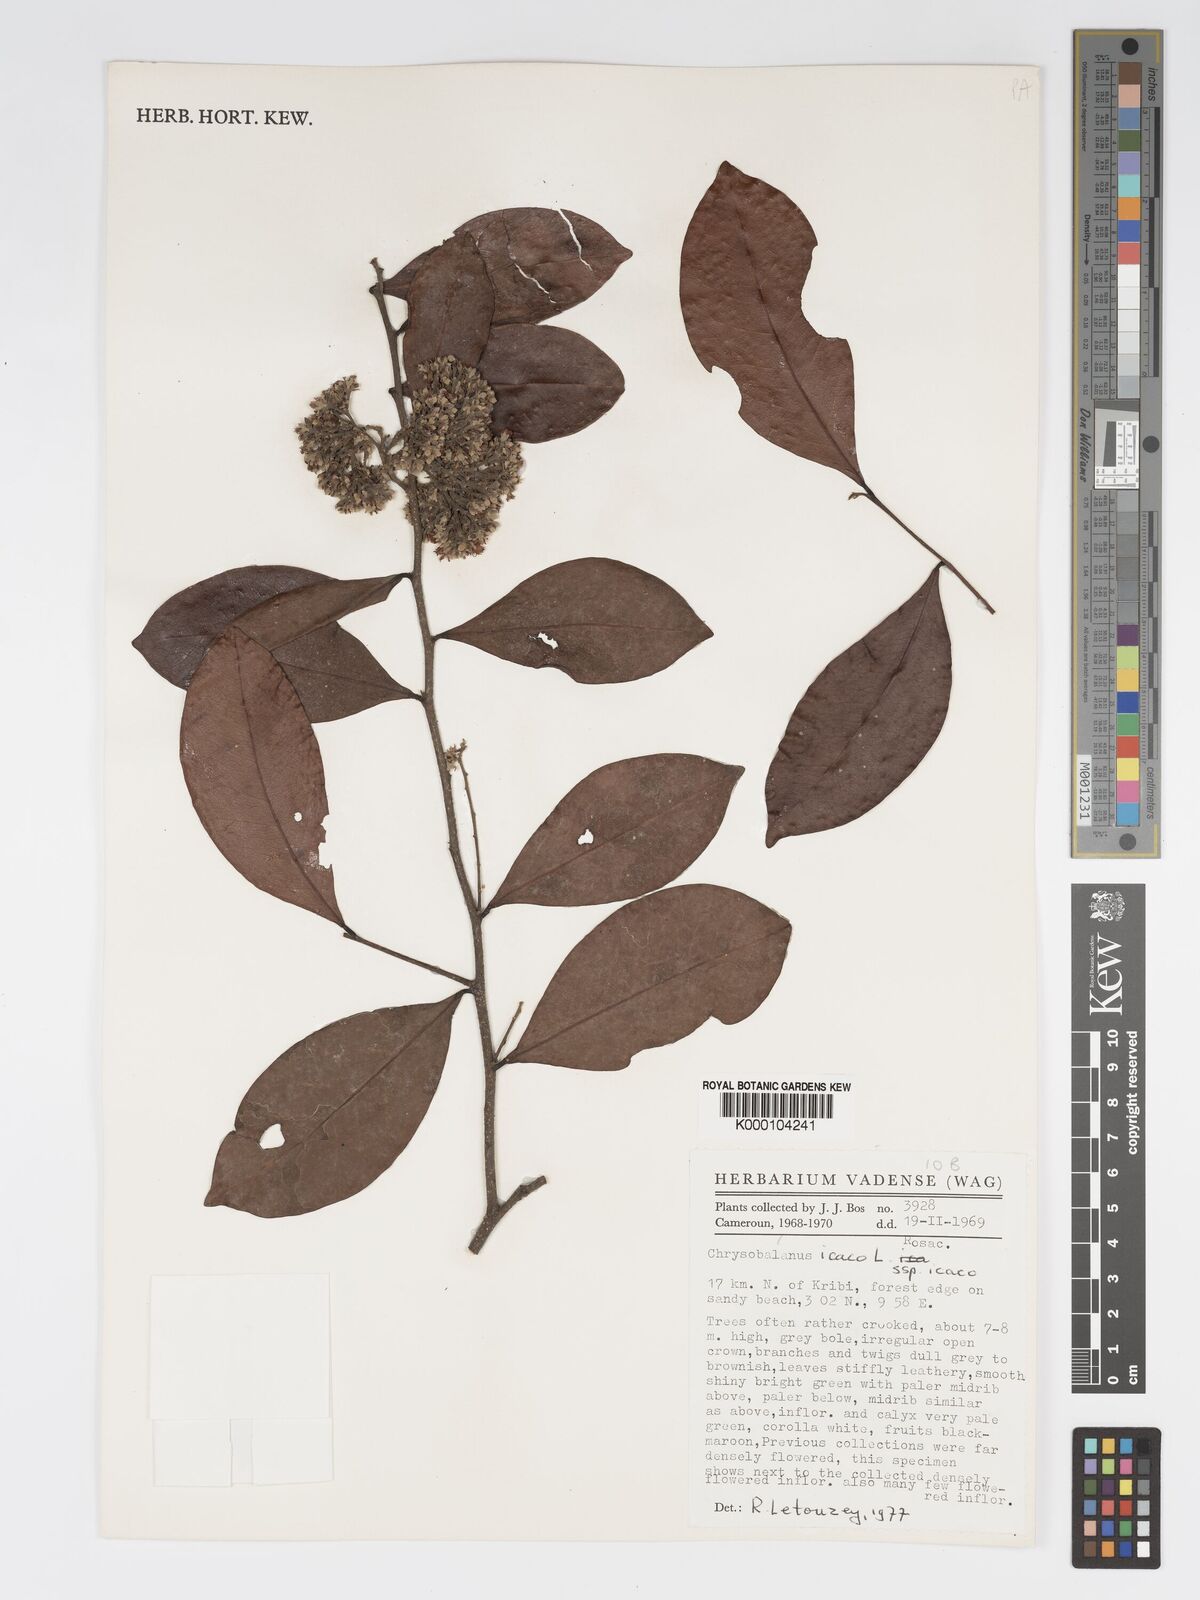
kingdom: Plantae
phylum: Tracheophyta
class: Magnoliopsida
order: Malpighiales
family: Chrysobalanaceae
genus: Chrysobalanus
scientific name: Chrysobalanus icaco
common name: Coco plum
